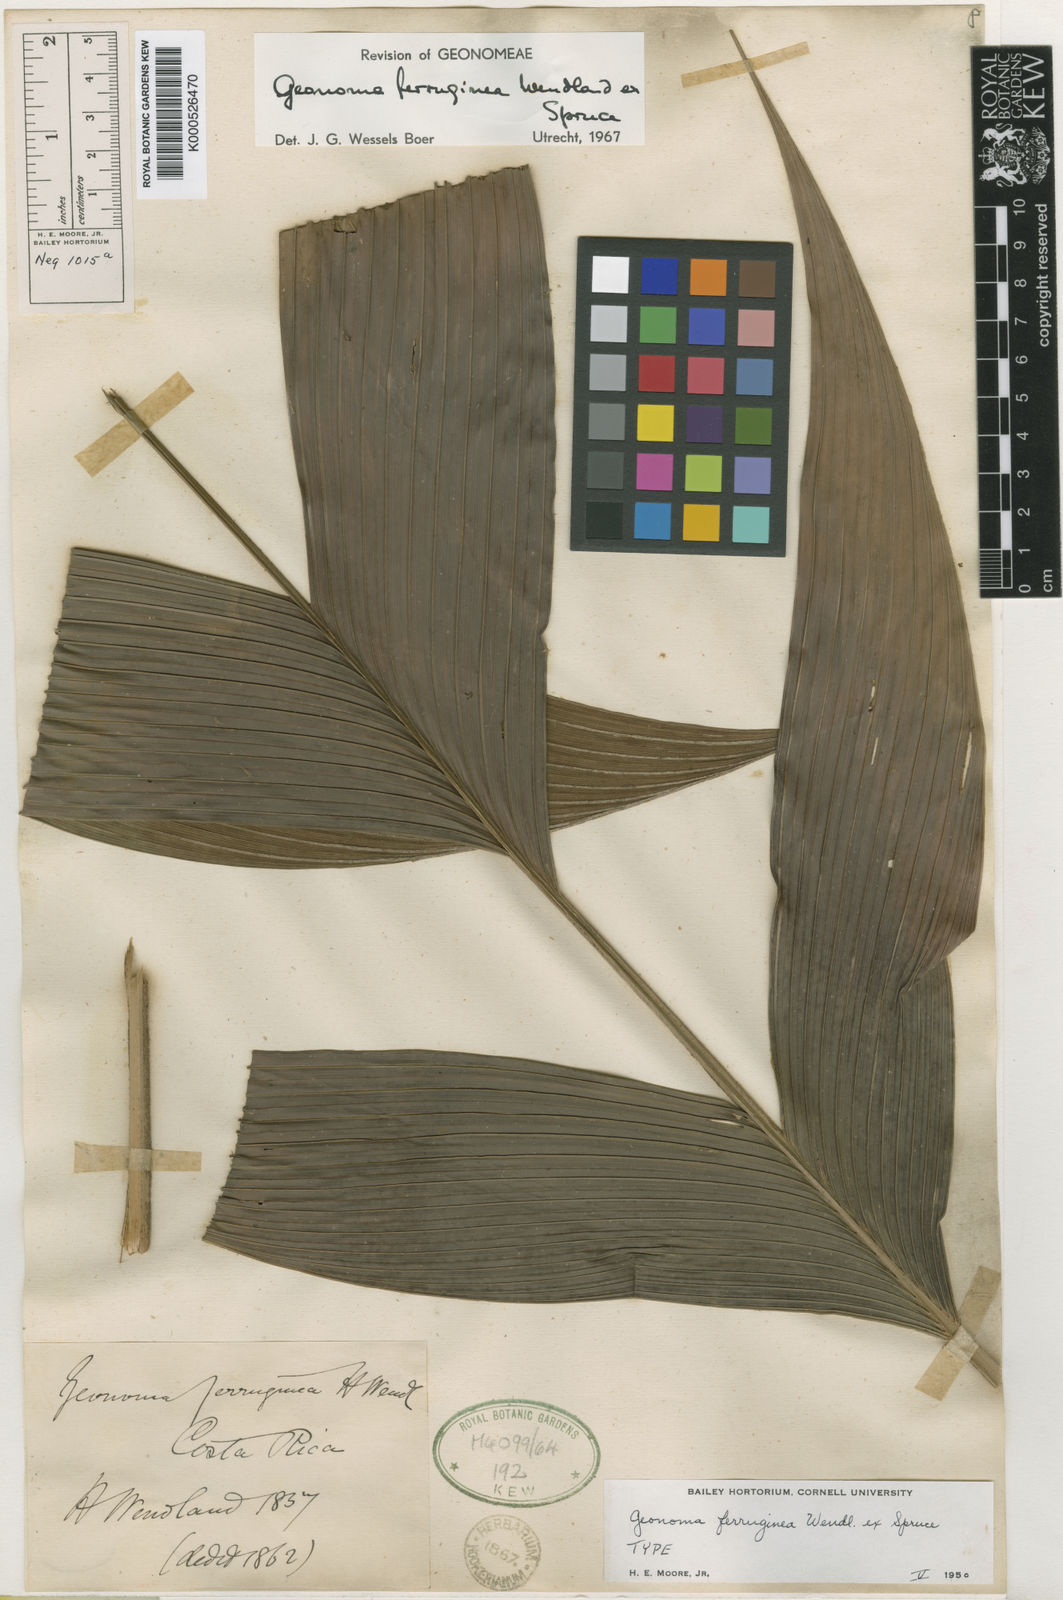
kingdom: Plantae
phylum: Tracheophyta
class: Liliopsida
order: Arecales
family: Arecaceae
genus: Geonoma
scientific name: Geonoma ferruginea
